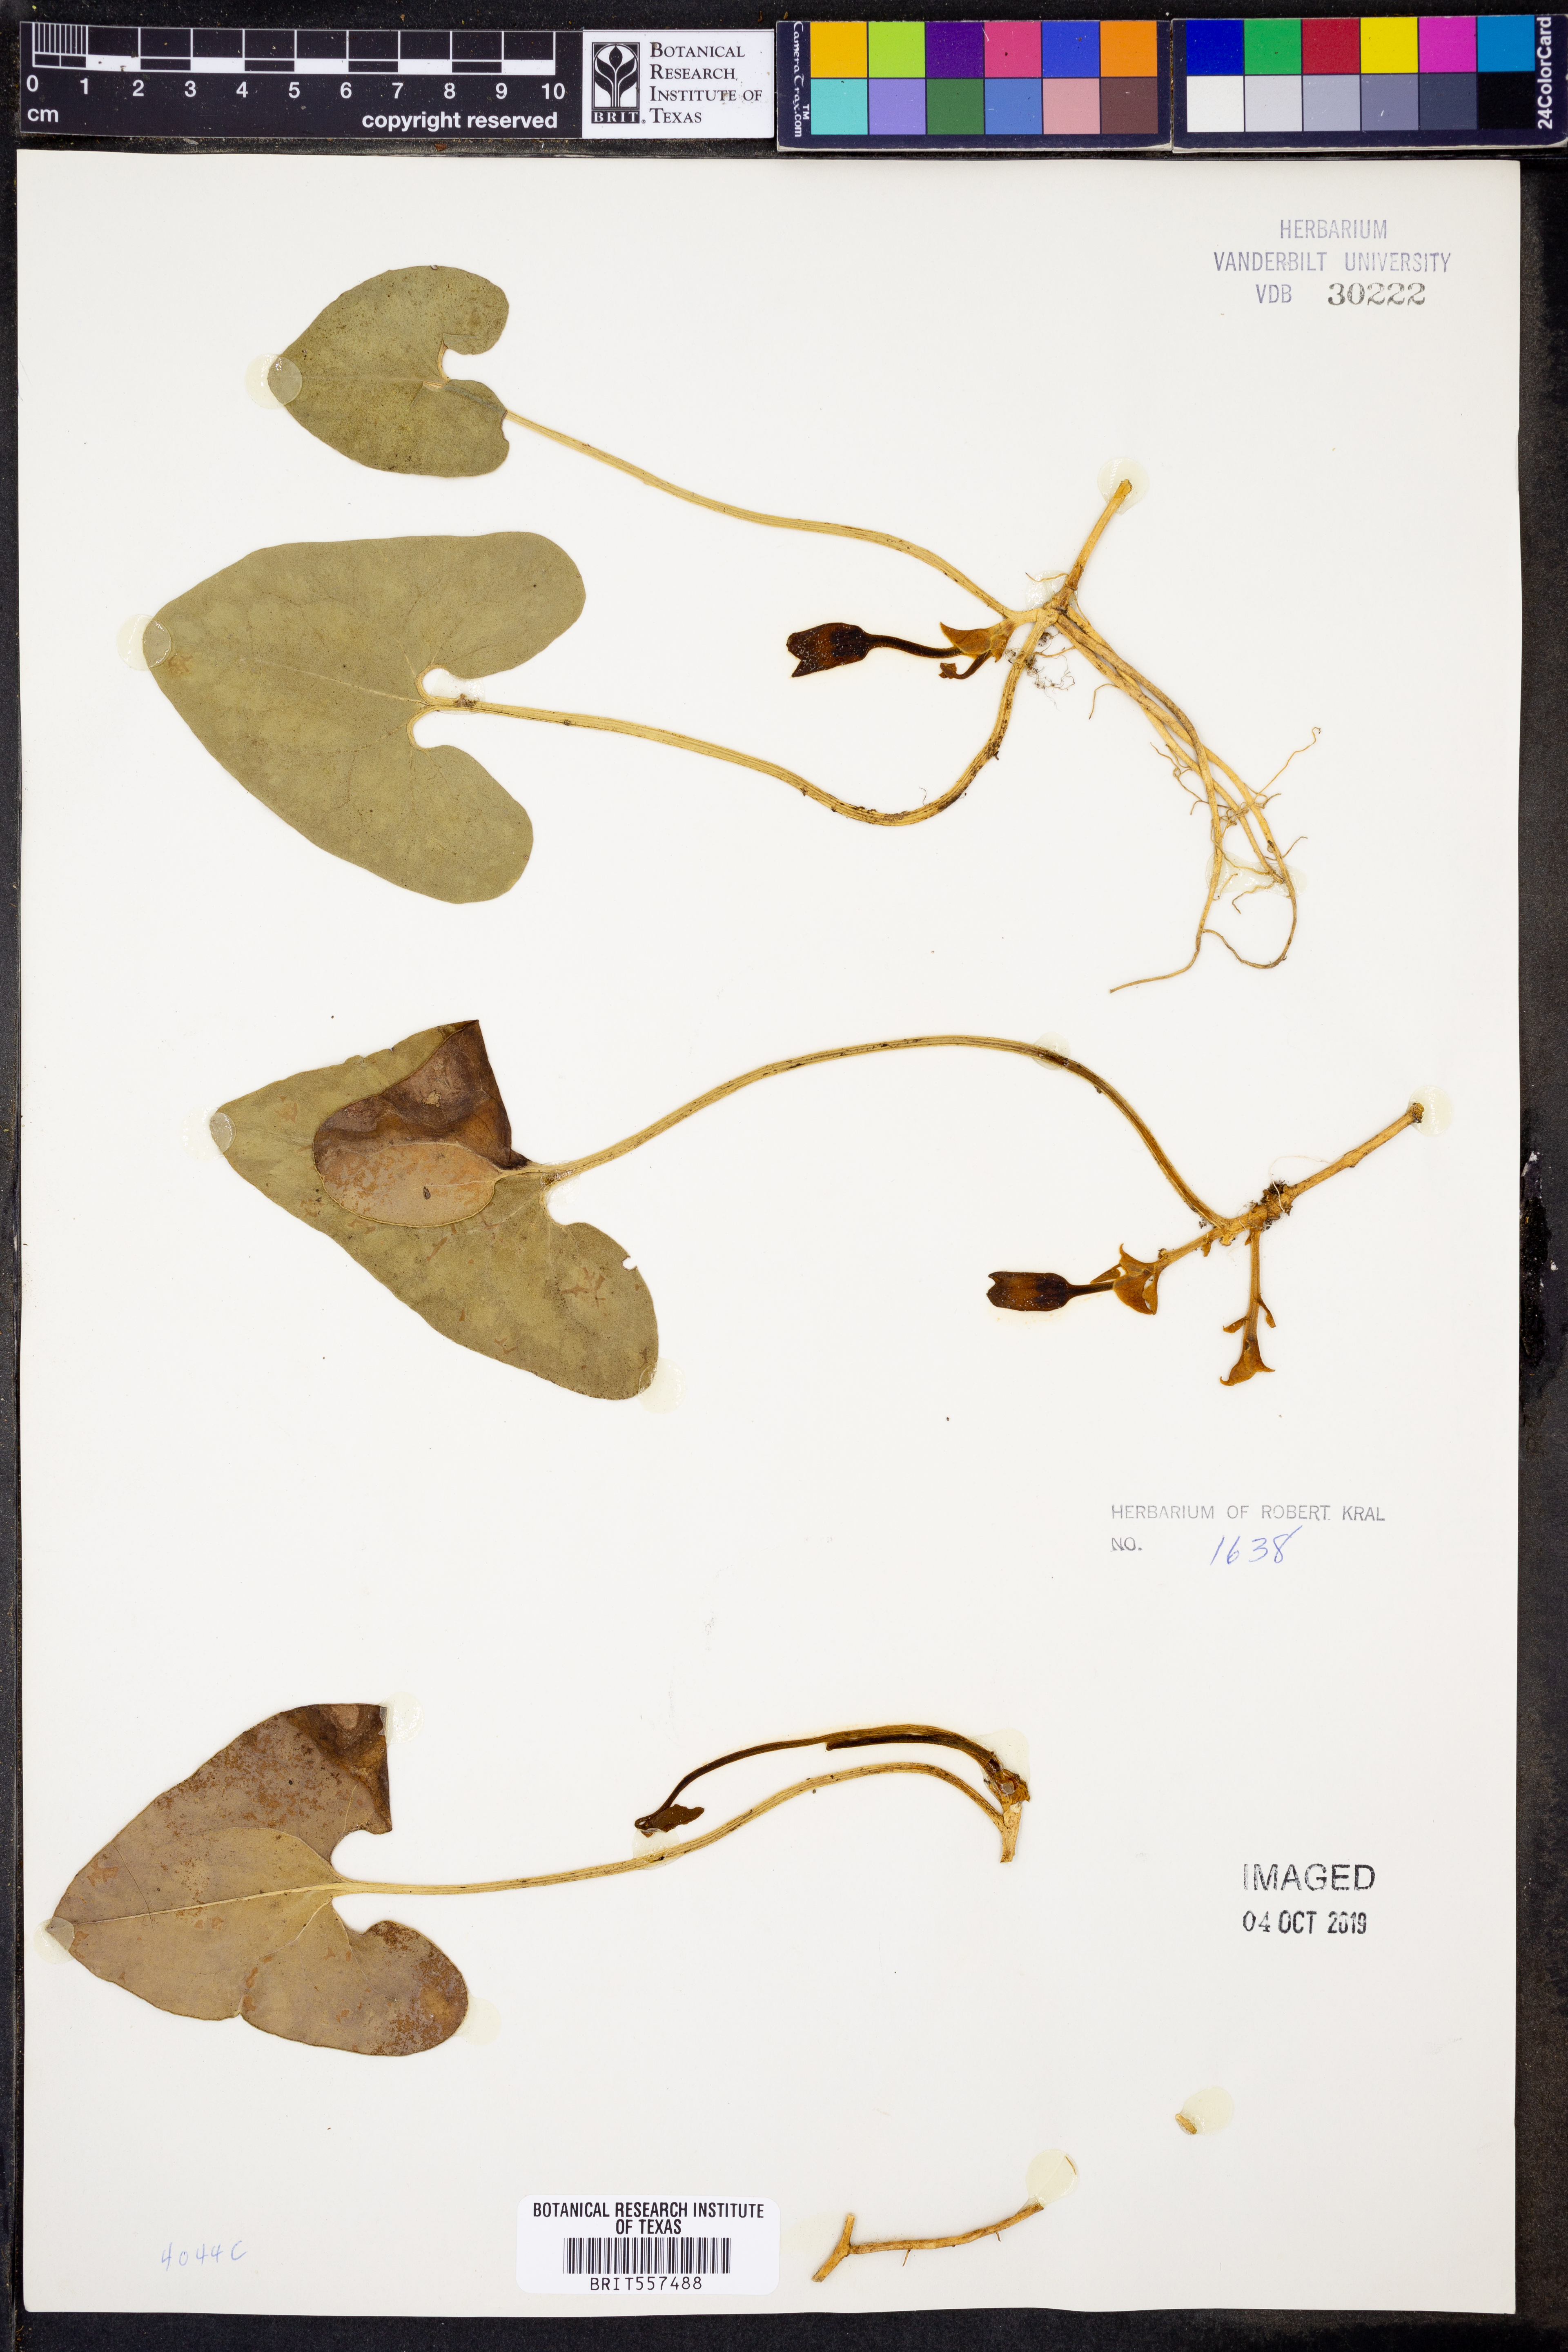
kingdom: Plantae
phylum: Tracheophyta
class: Magnoliopsida
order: Piperales
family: Aristolochiaceae
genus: Hexastylis
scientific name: Hexastylis arifolia
